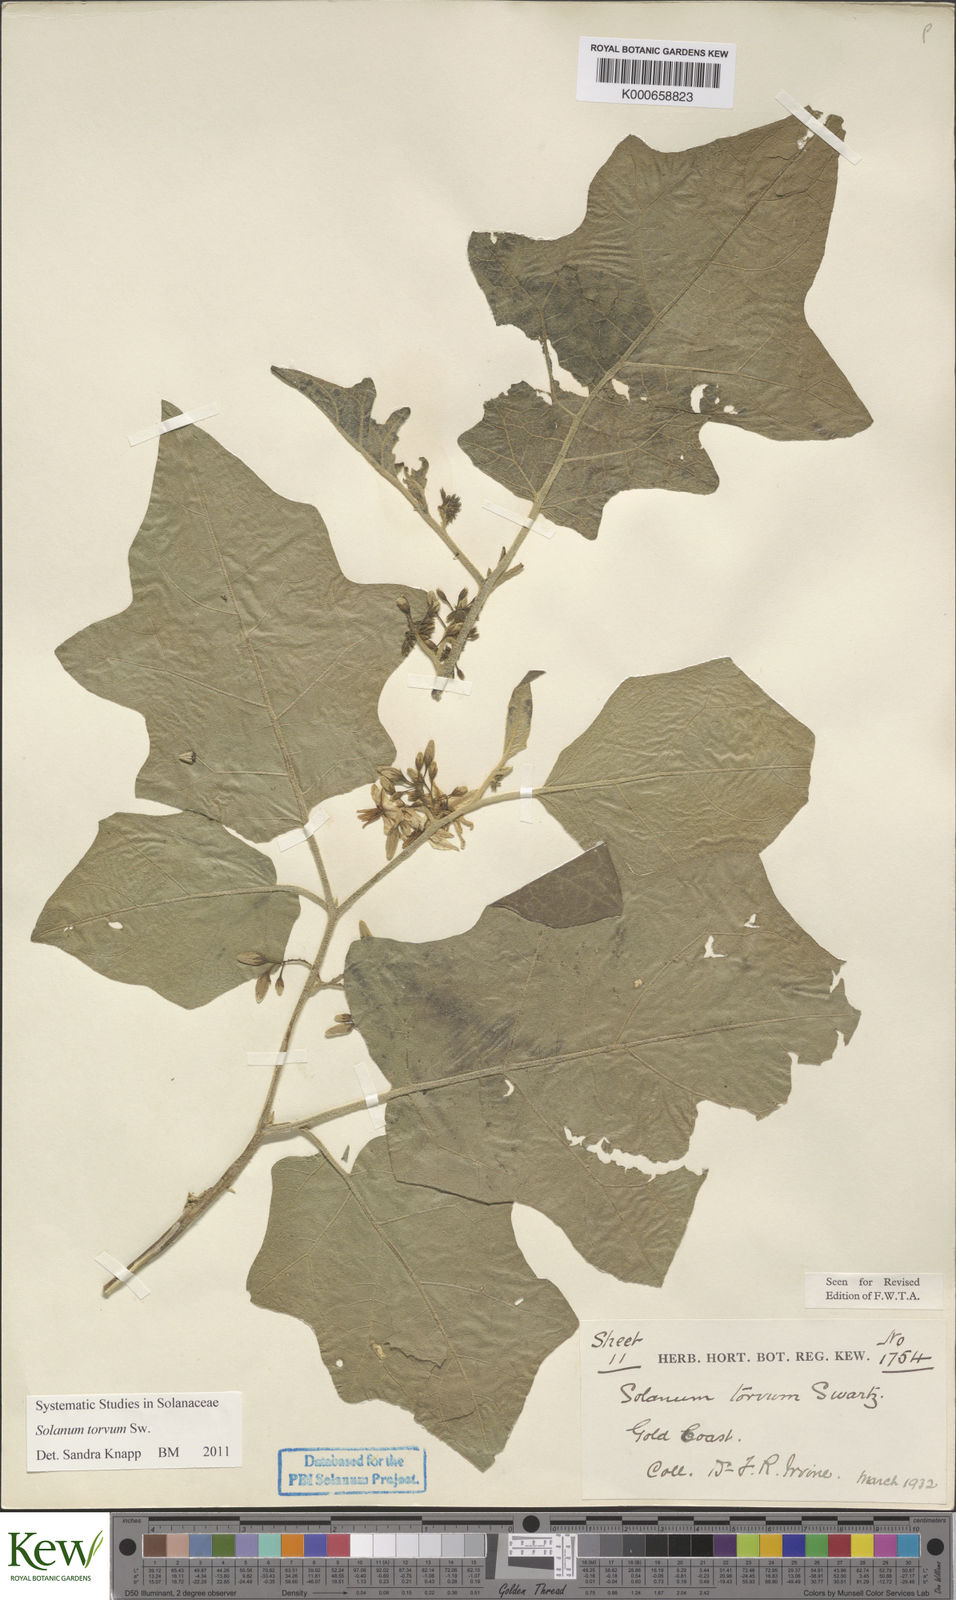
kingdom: Plantae
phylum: Tracheophyta
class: Magnoliopsida
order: Solanales
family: Solanaceae
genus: Solanum
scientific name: Solanum torvum
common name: Turkey berry
